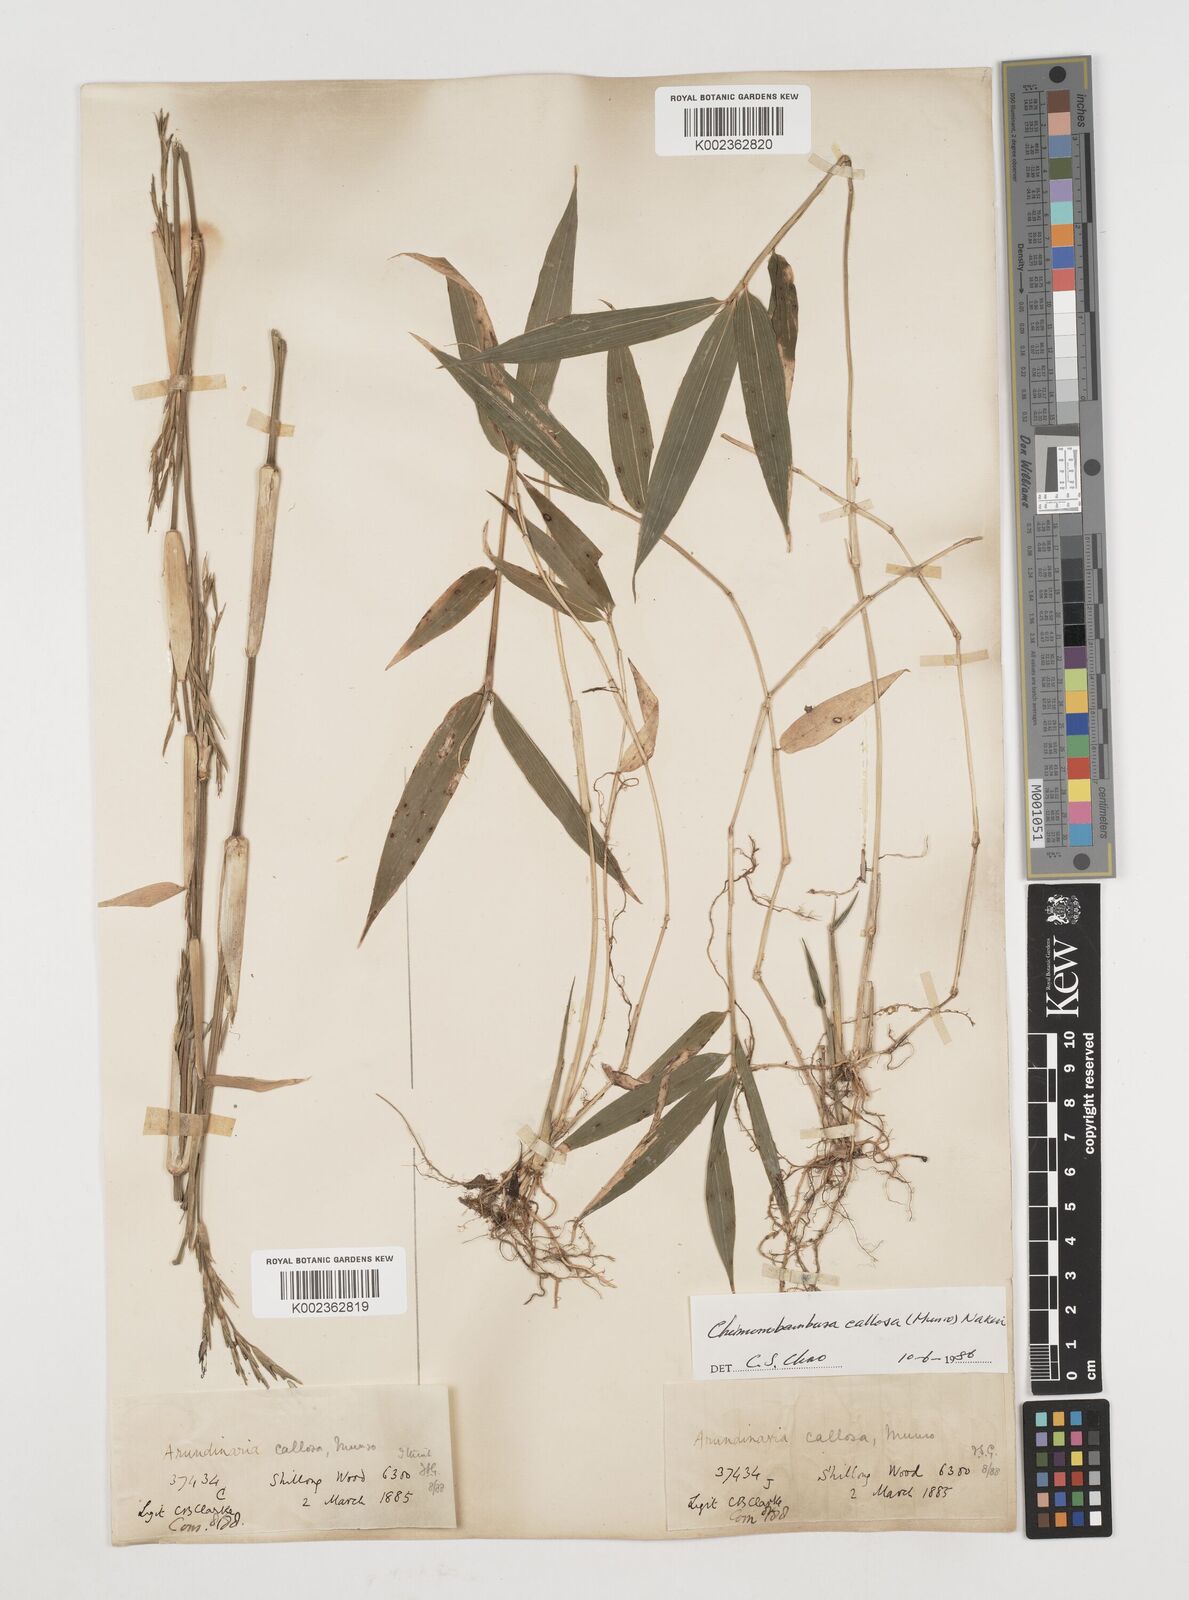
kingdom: Plantae
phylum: Tracheophyta
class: Liliopsida
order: Poales
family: Poaceae
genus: Chimonobambusa
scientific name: Chimonobambusa callosa
